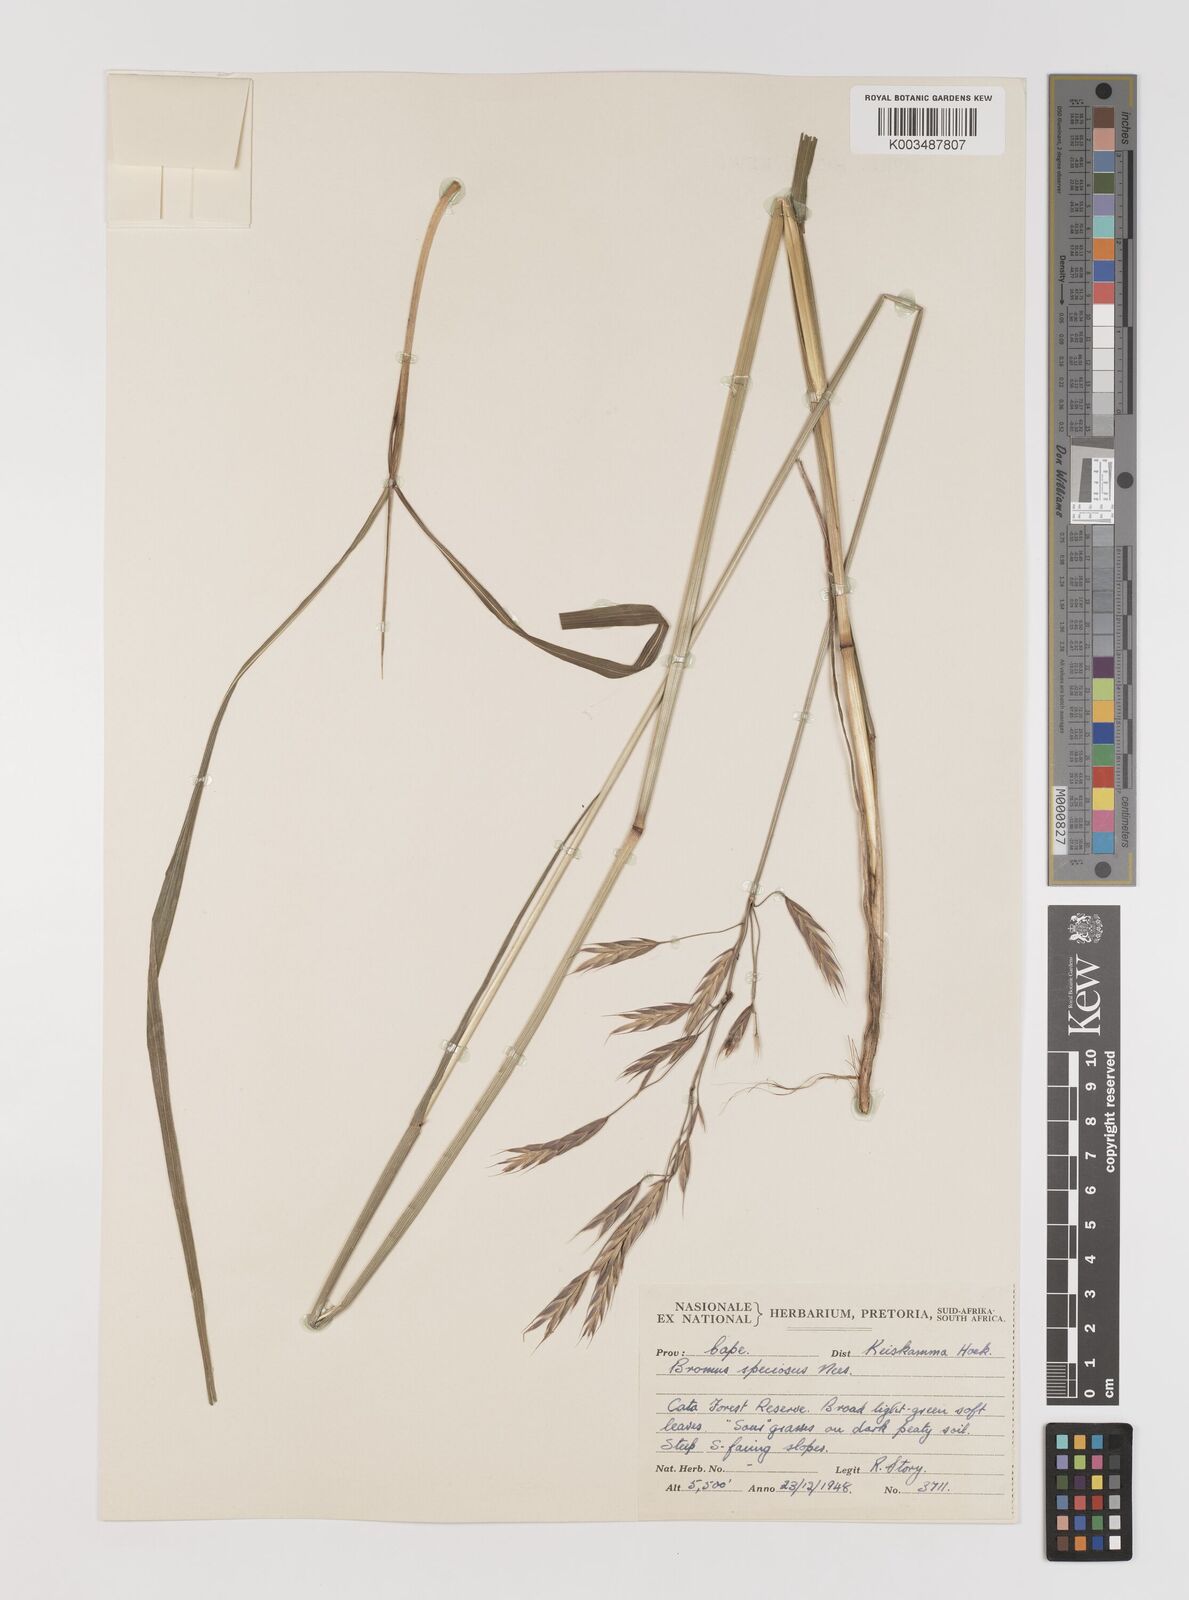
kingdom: Plantae
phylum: Tracheophyta
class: Liliopsida
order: Poales
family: Poaceae
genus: Bromus
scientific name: Bromus speciosus
